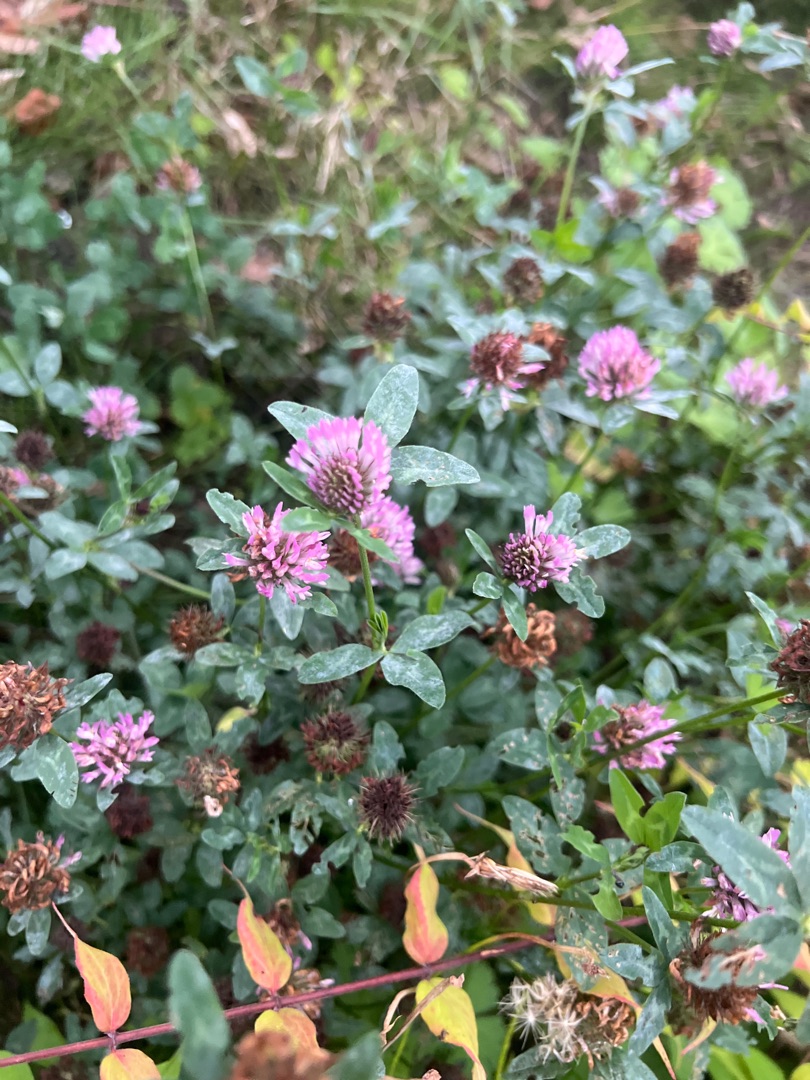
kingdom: Plantae
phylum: Tracheophyta
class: Magnoliopsida
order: Fabales
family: Fabaceae
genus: Trifolium
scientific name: Trifolium pratense
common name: Rød-kløver
